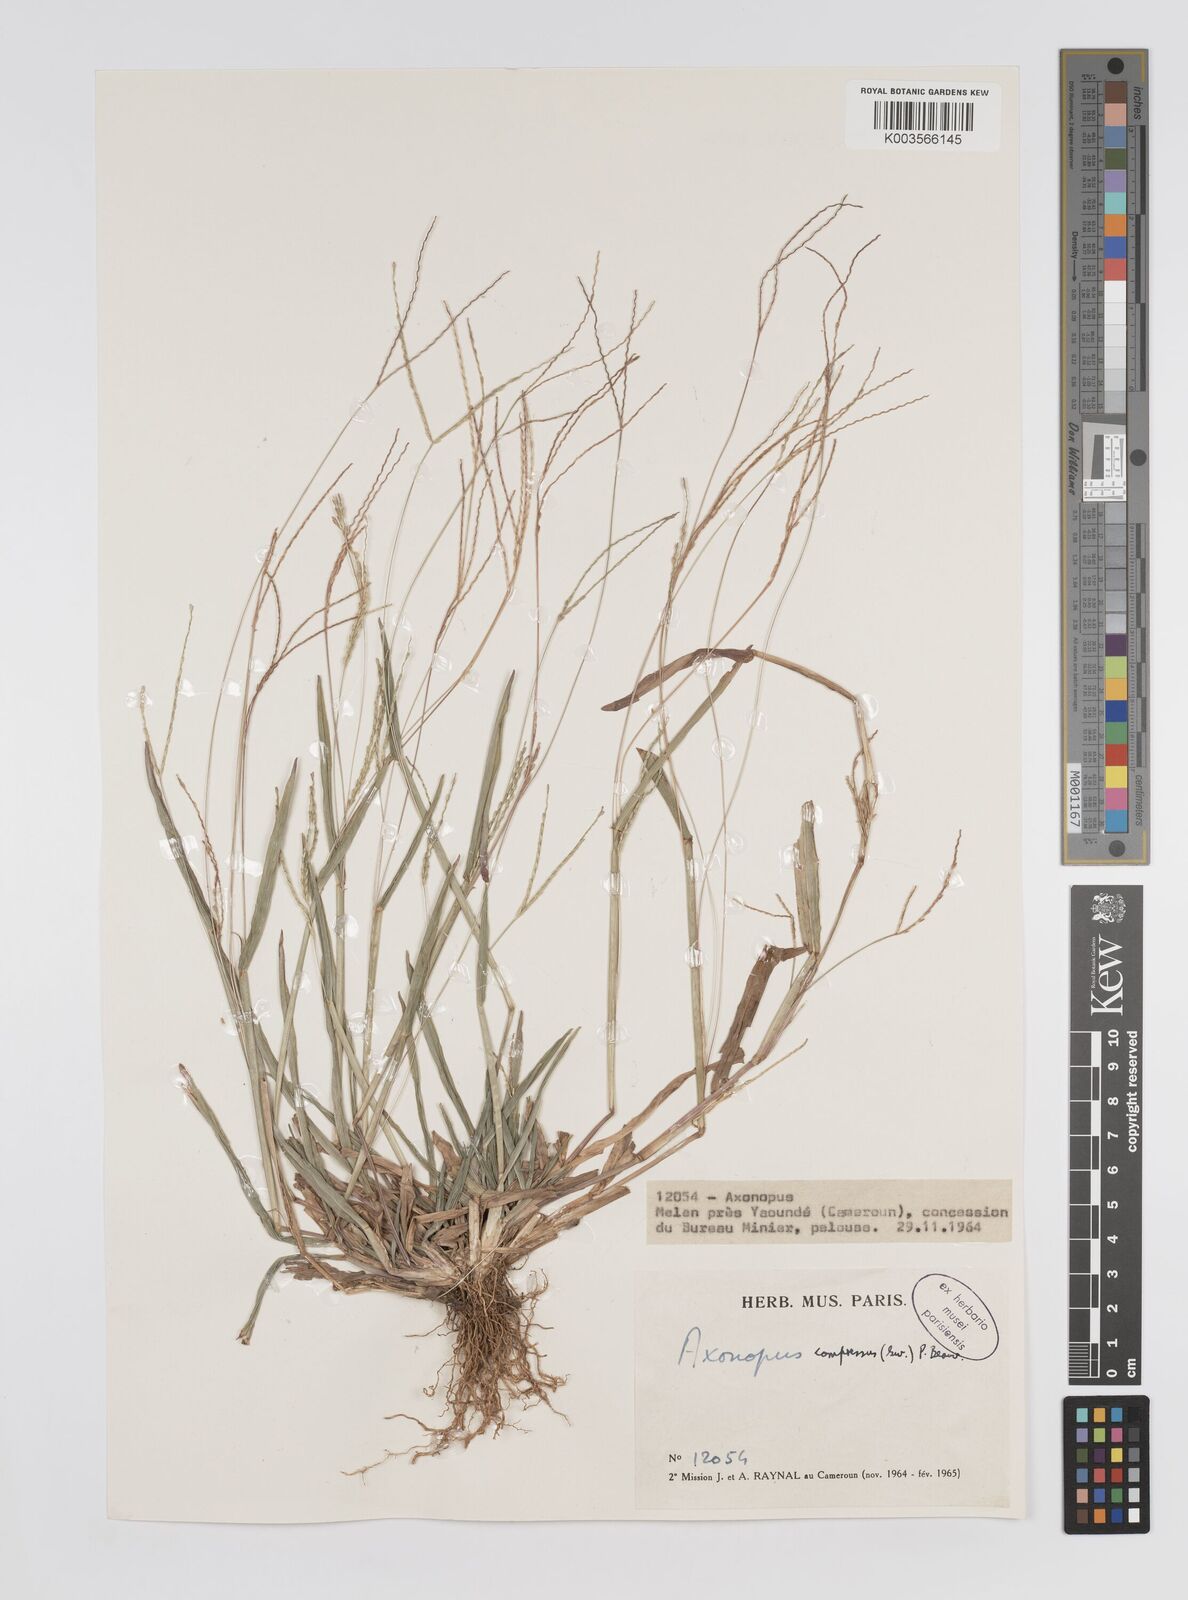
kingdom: Plantae
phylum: Tracheophyta
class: Liliopsida
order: Poales
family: Poaceae
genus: Axonopus
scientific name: Axonopus compressus
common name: American carpet grass
